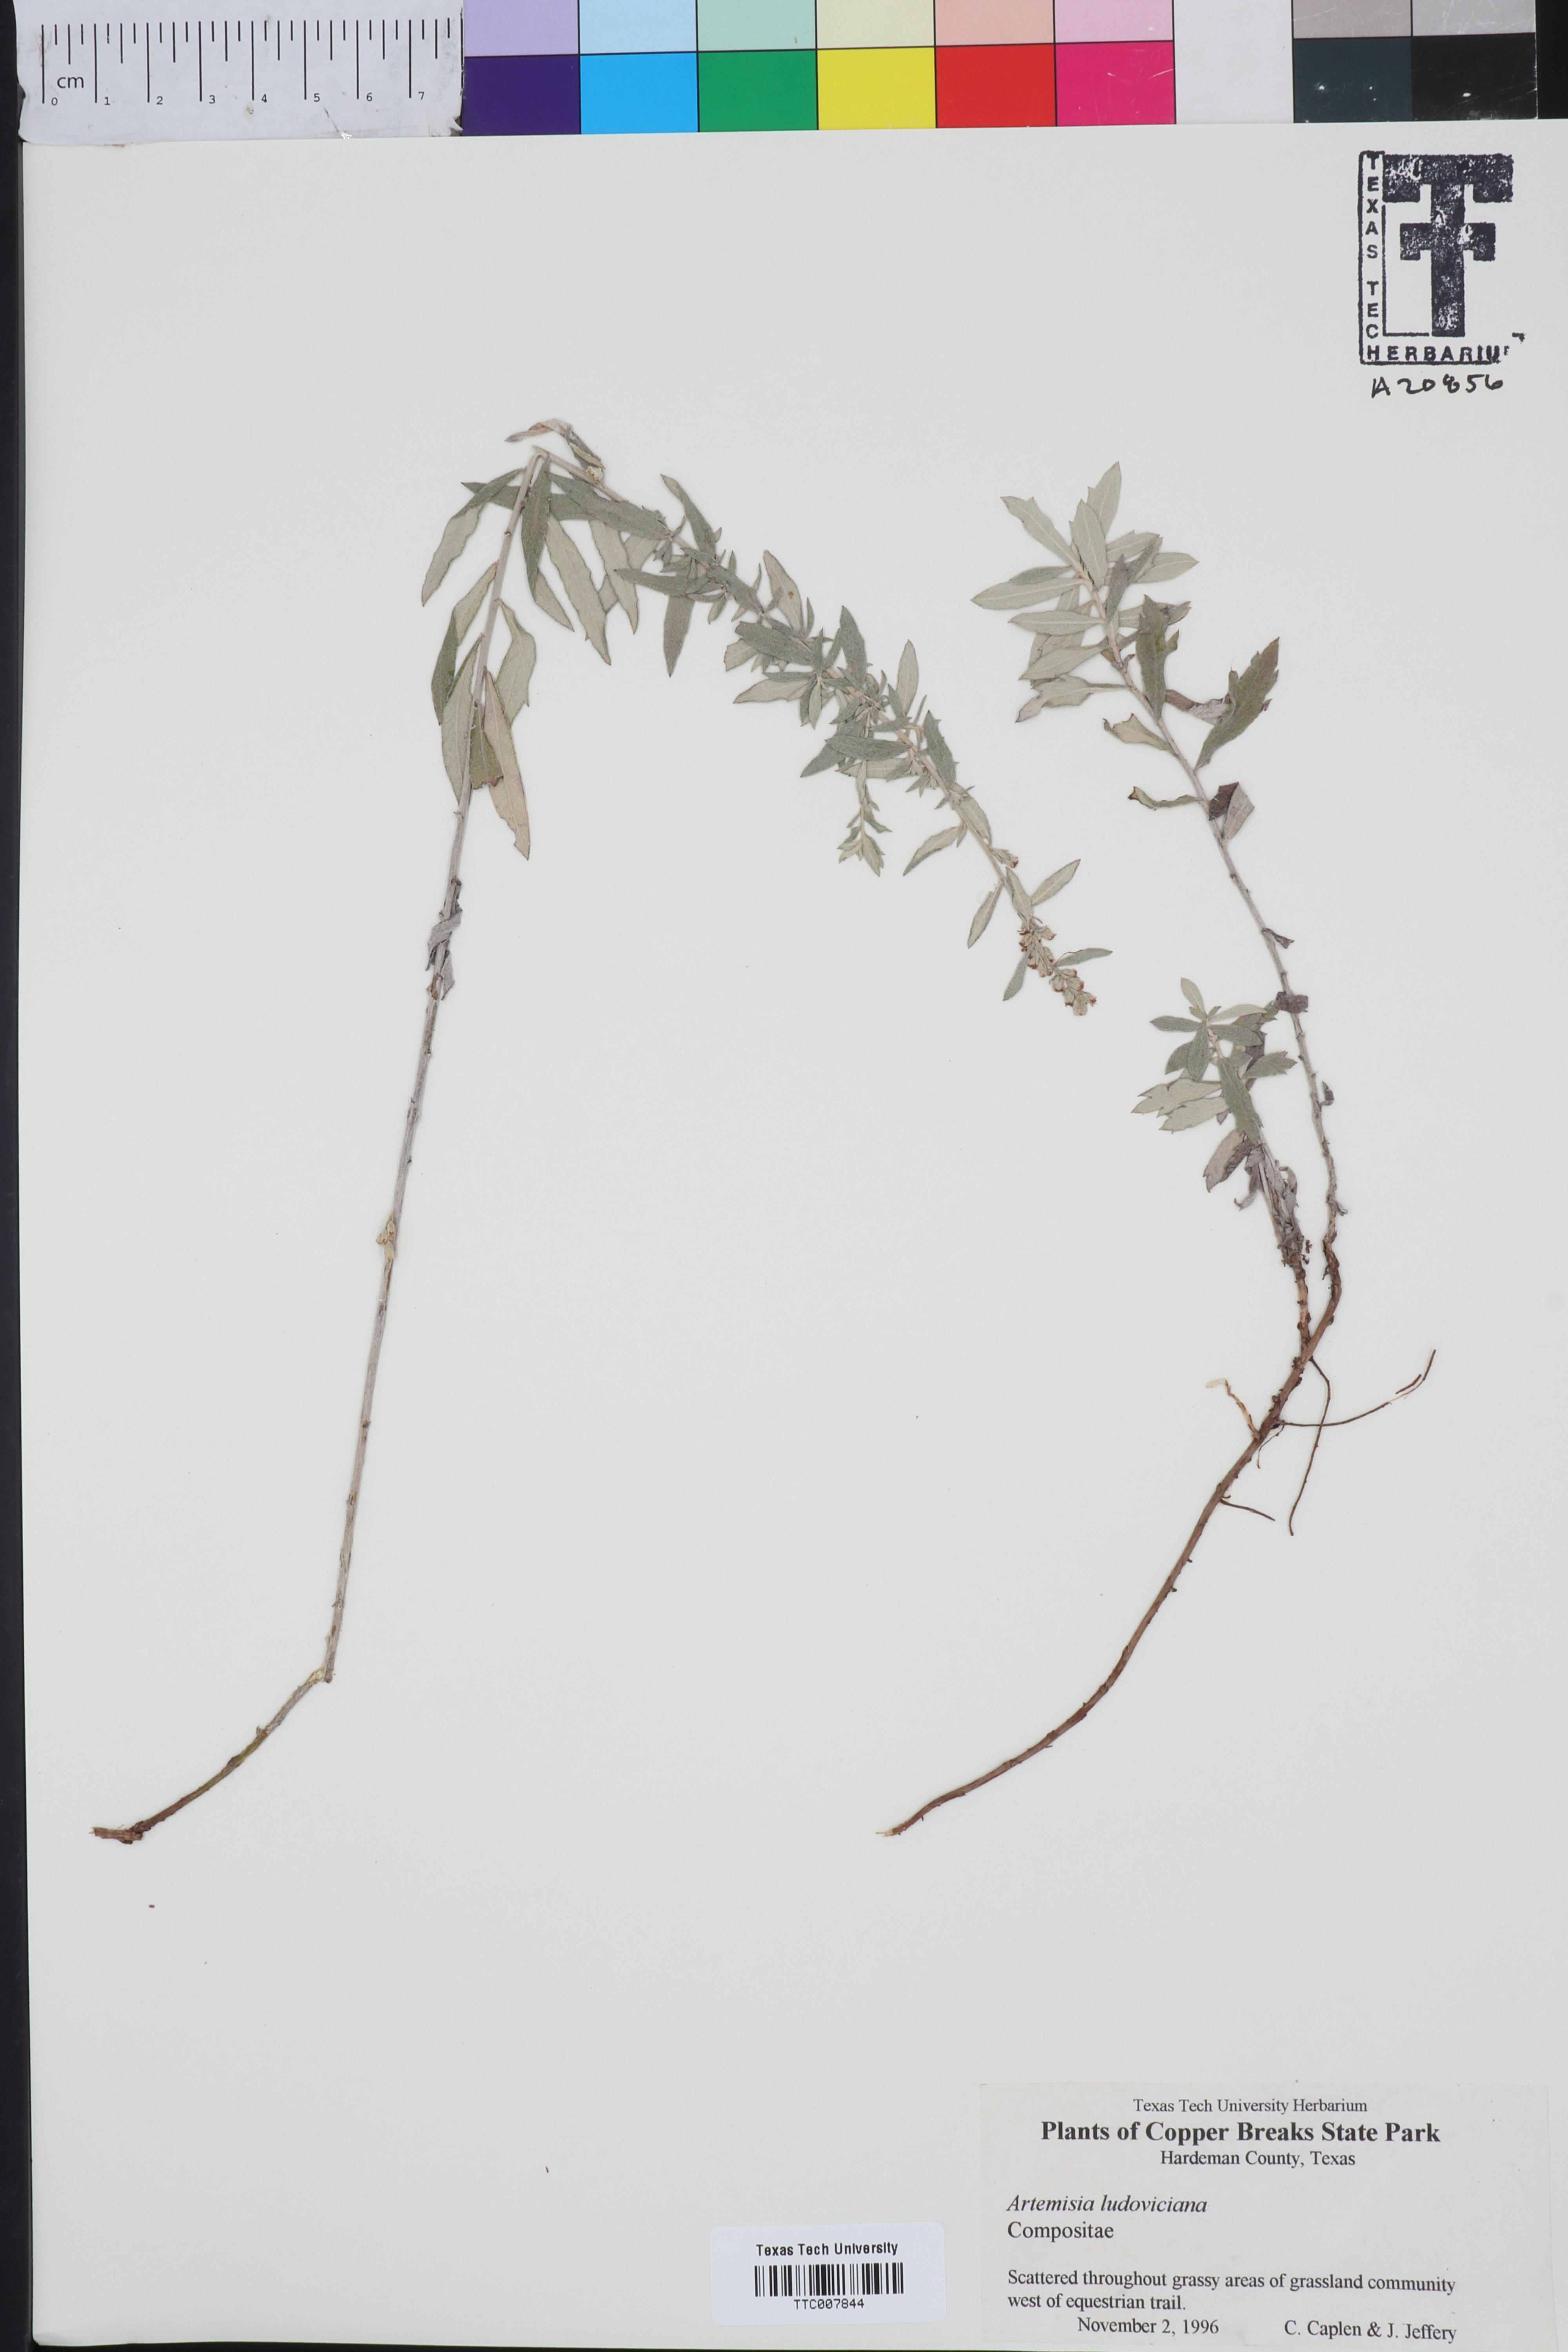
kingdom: Plantae
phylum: Tracheophyta
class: Magnoliopsida
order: Asterales
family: Asteraceae
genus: Artemisia
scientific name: Artemisia ludoviciana
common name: Western mugwort
